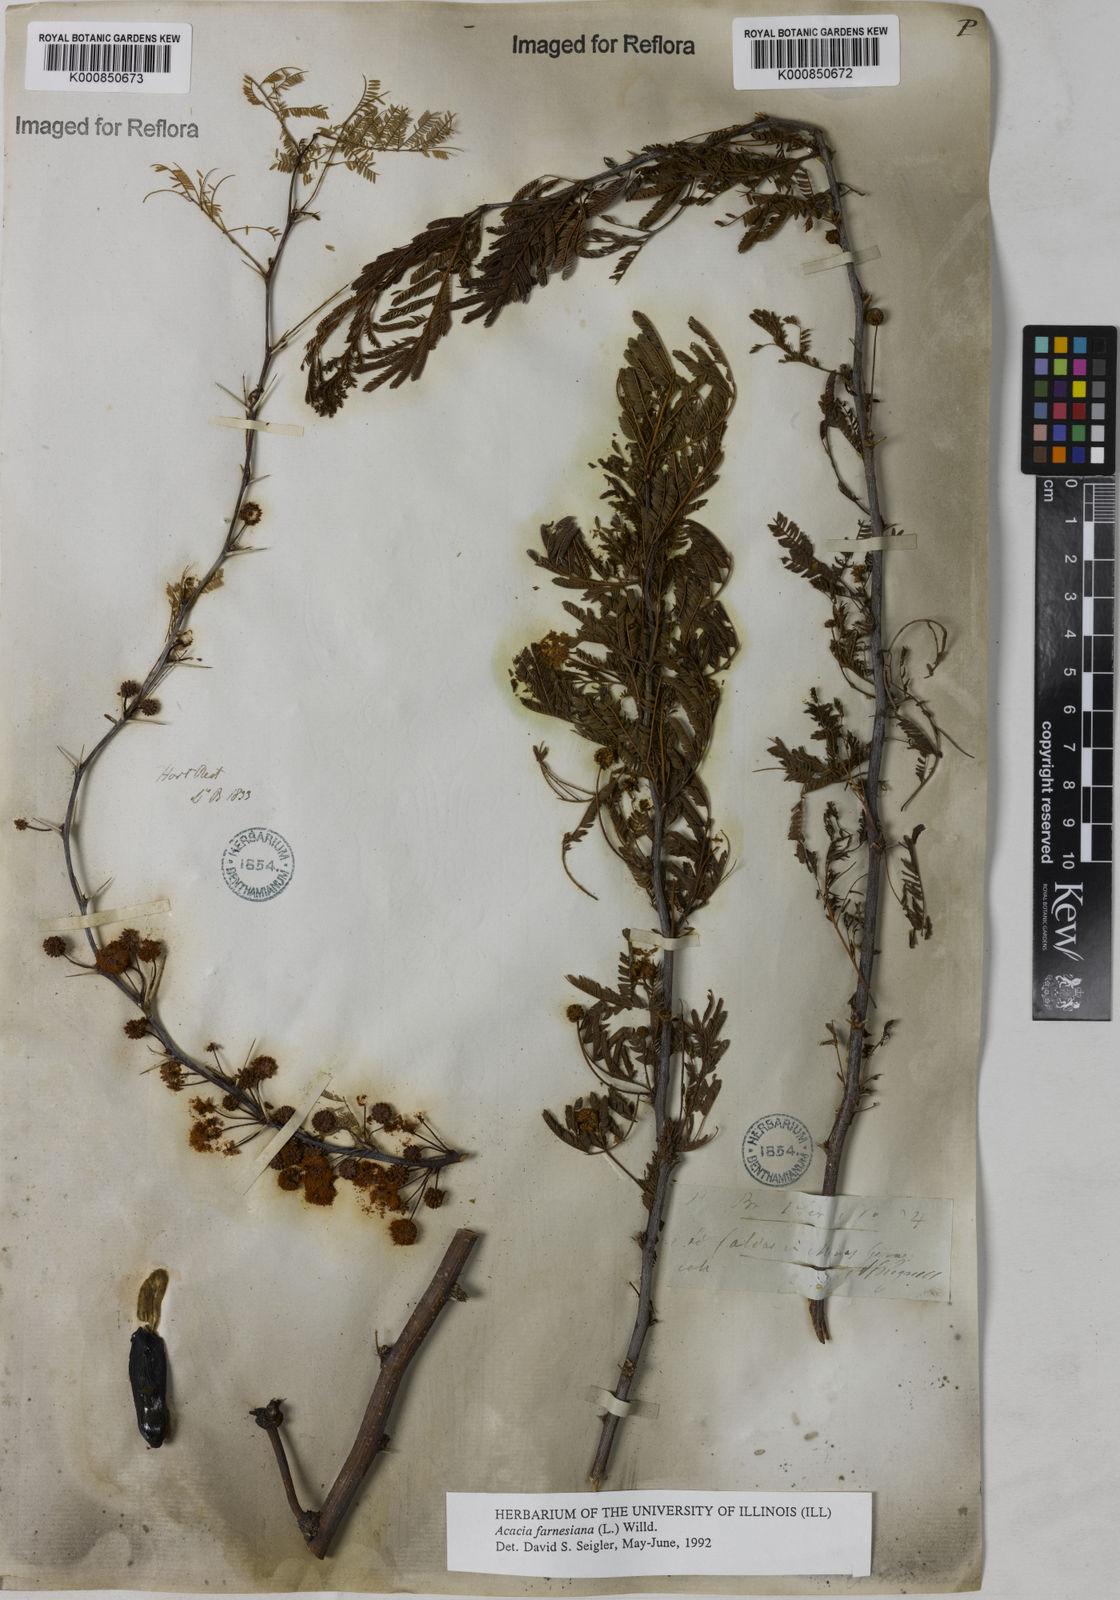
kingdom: Plantae
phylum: Tracheophyta
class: Magnoliopsida
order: Fabales
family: Fabaceae
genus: Vachellia
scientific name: Vachellia farnesiana
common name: Sweet acacia
